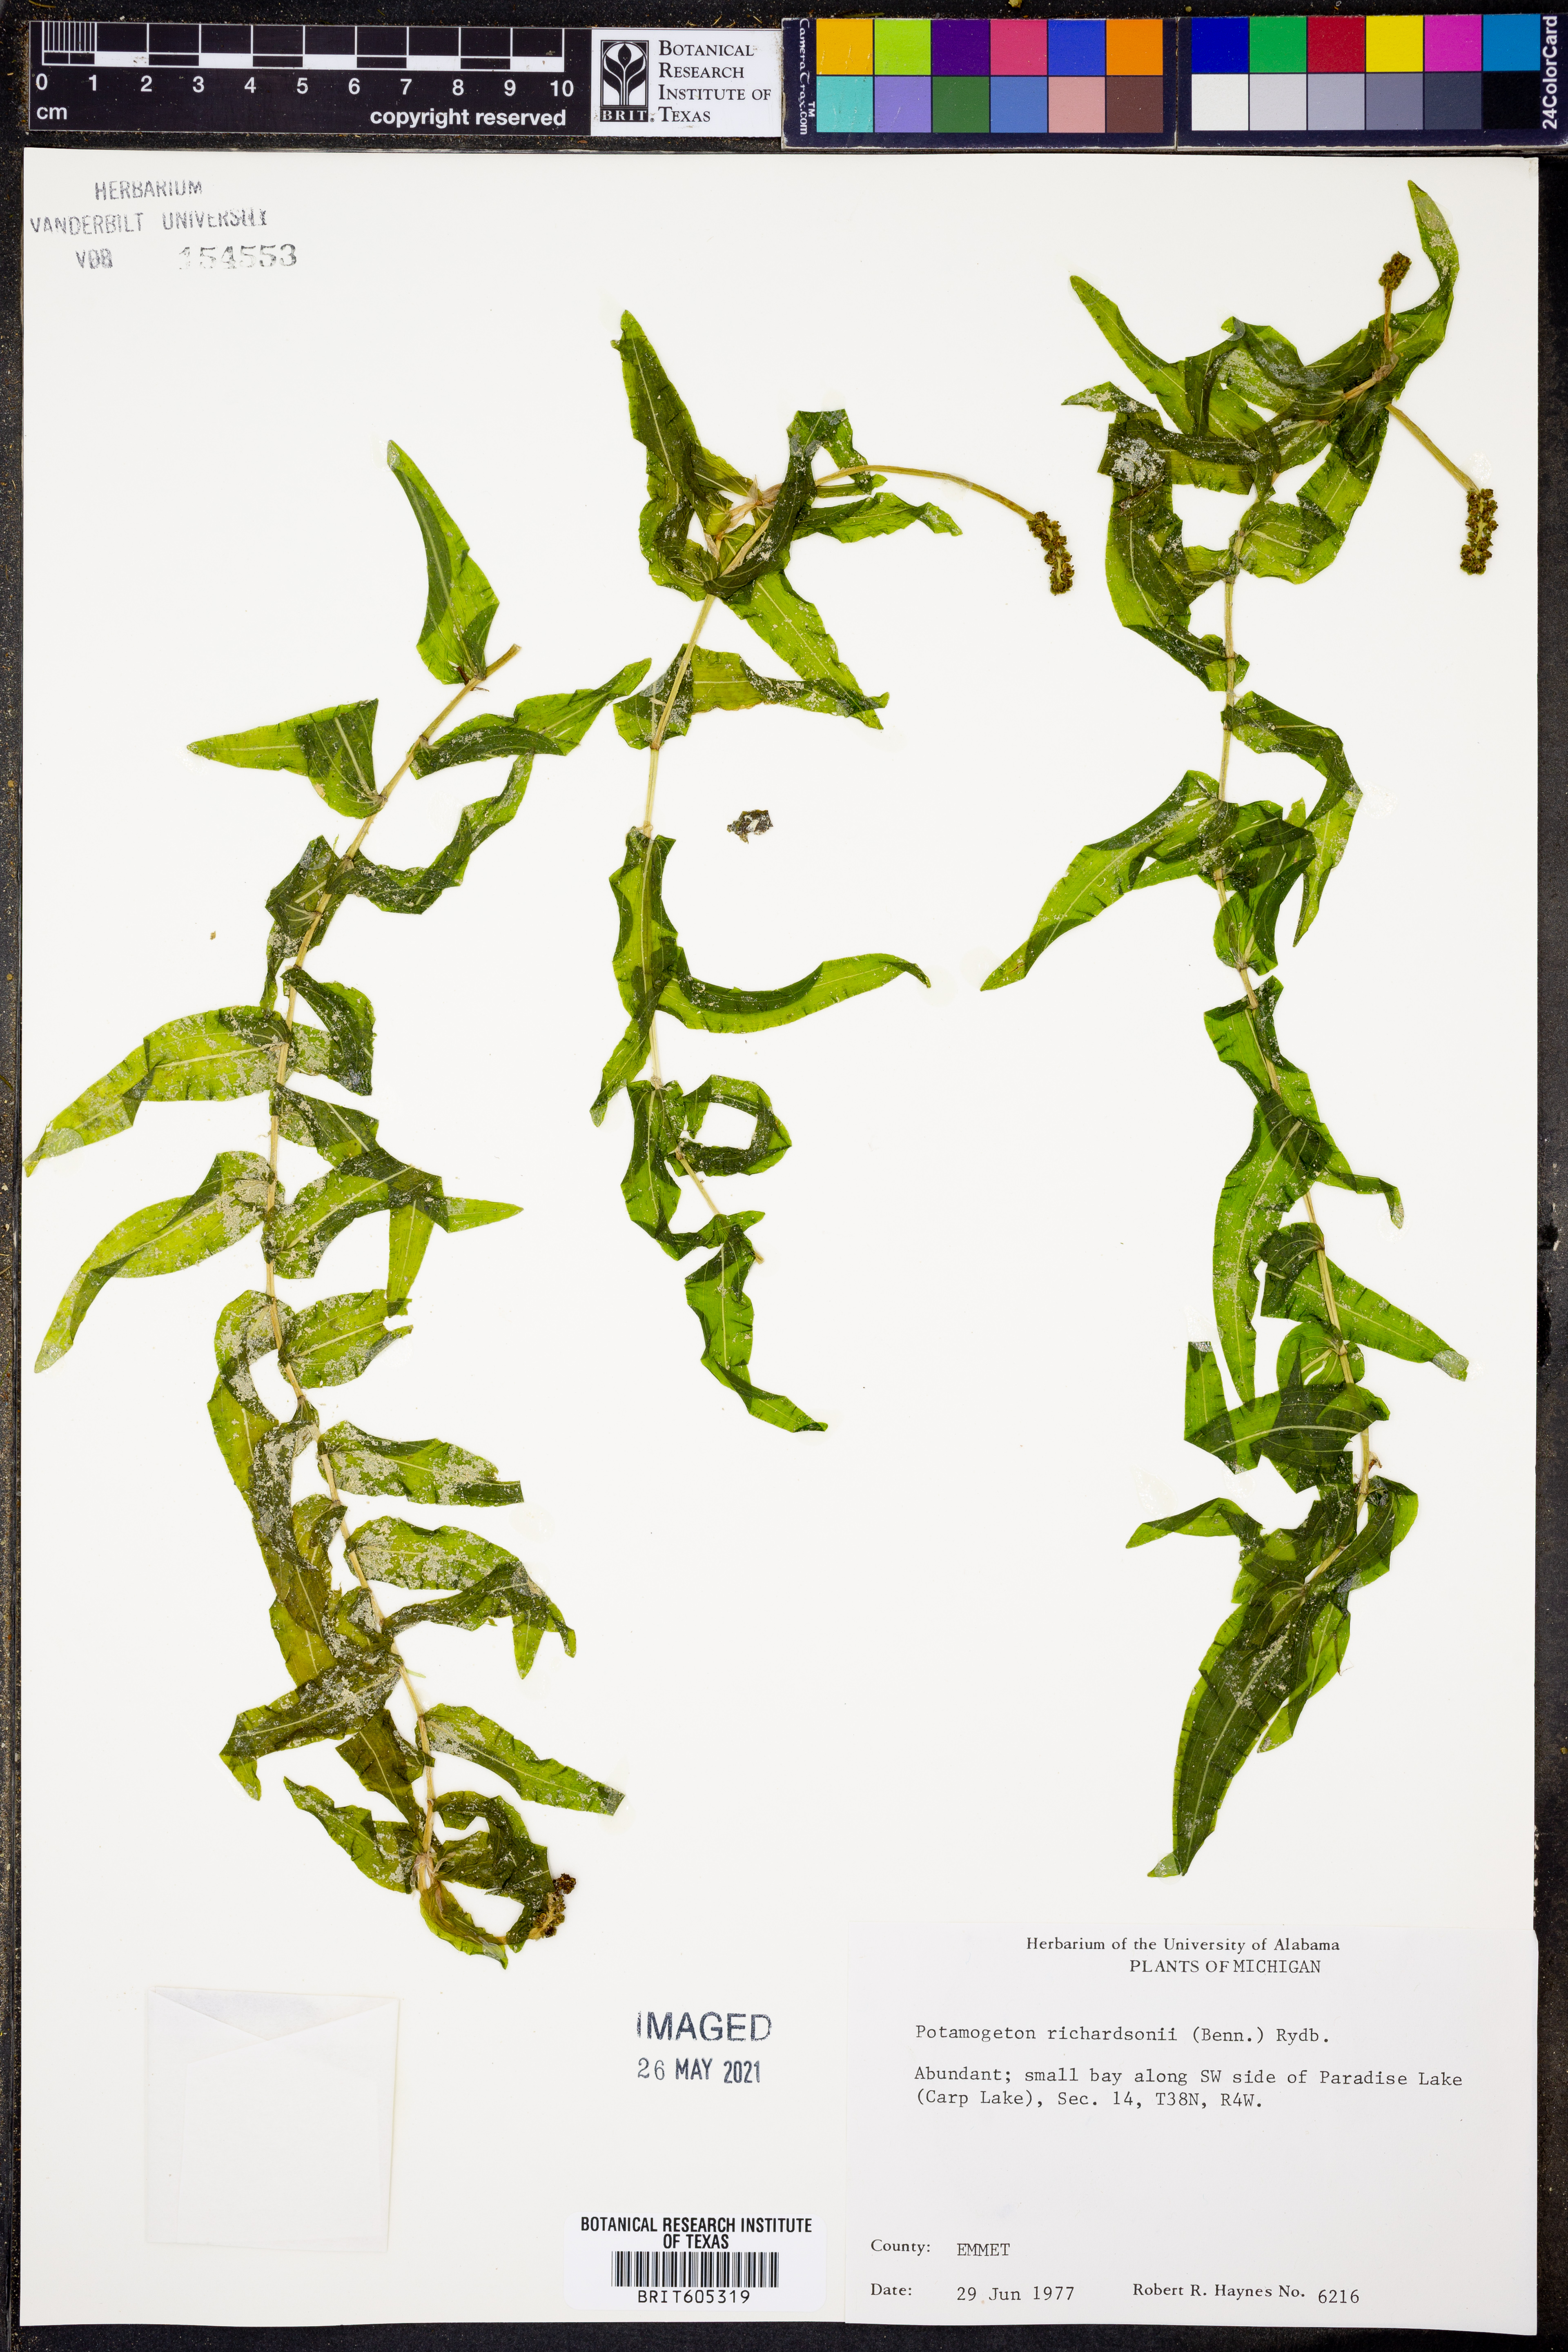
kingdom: Plantae
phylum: Tracheophyta
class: Liliopsida
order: Alismatales
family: Potamogetonaceae
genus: Potamogeton
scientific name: Potamogeton richardsonii
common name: Richardson's pondweed
